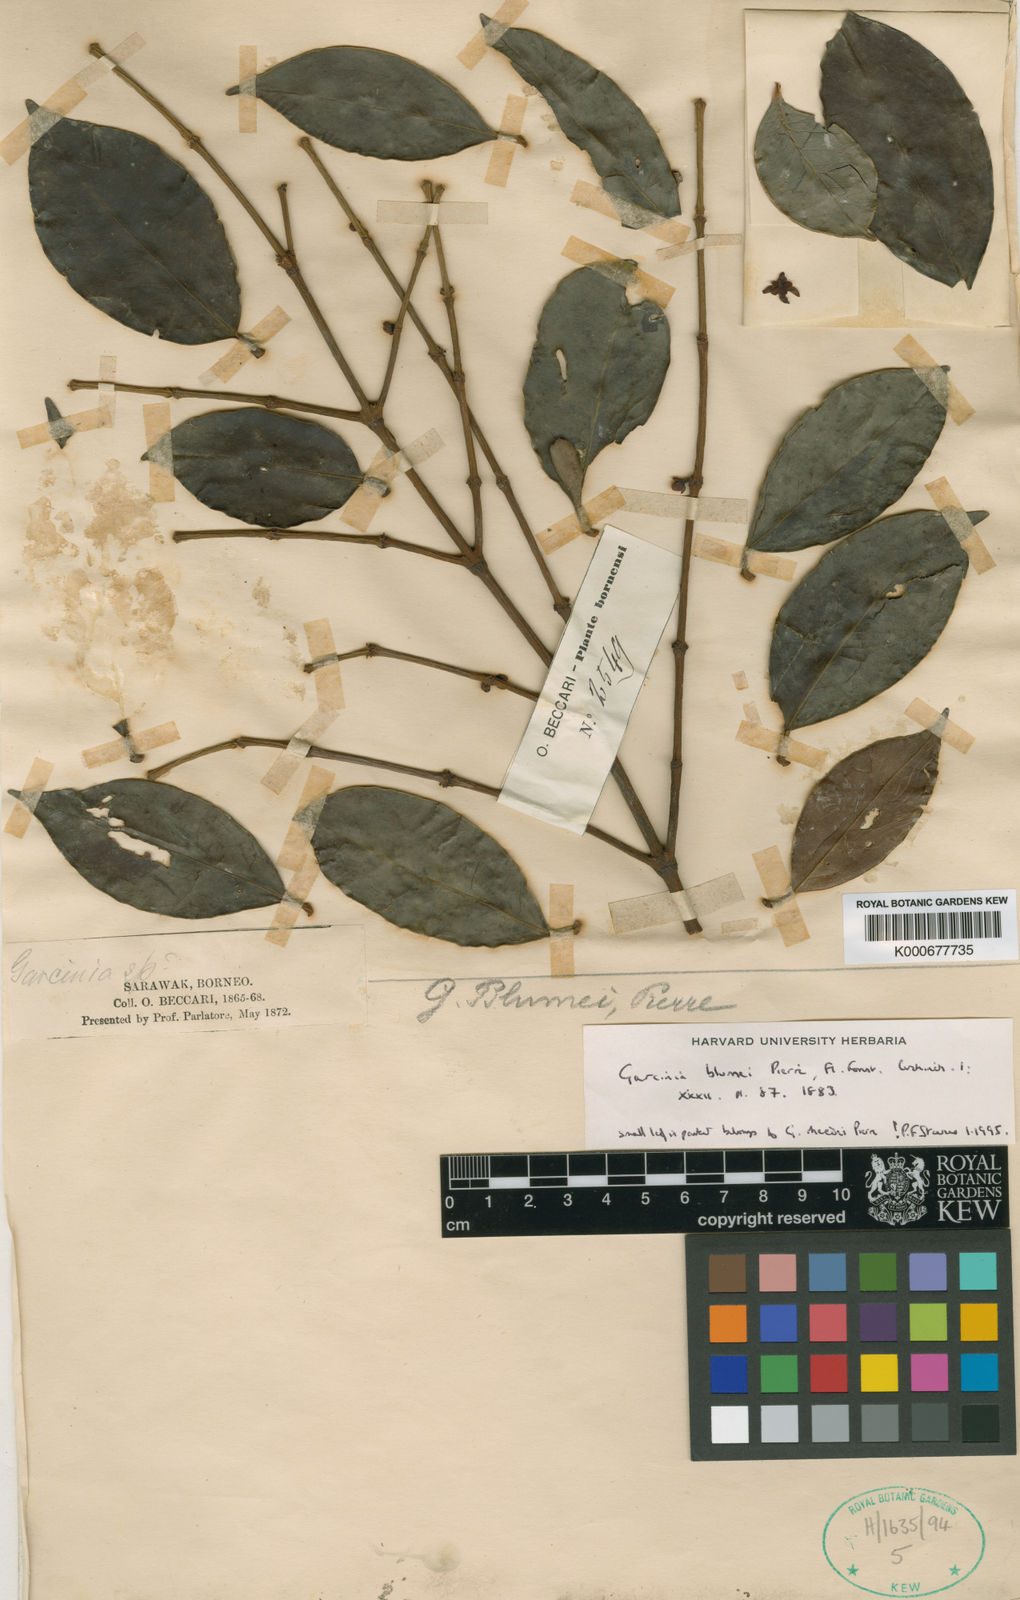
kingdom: Plantae
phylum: Tracheophyta
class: Magnoliopsida
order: Malpighiales
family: Clusiaceae
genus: Garcinia
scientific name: Garcinia blumei
